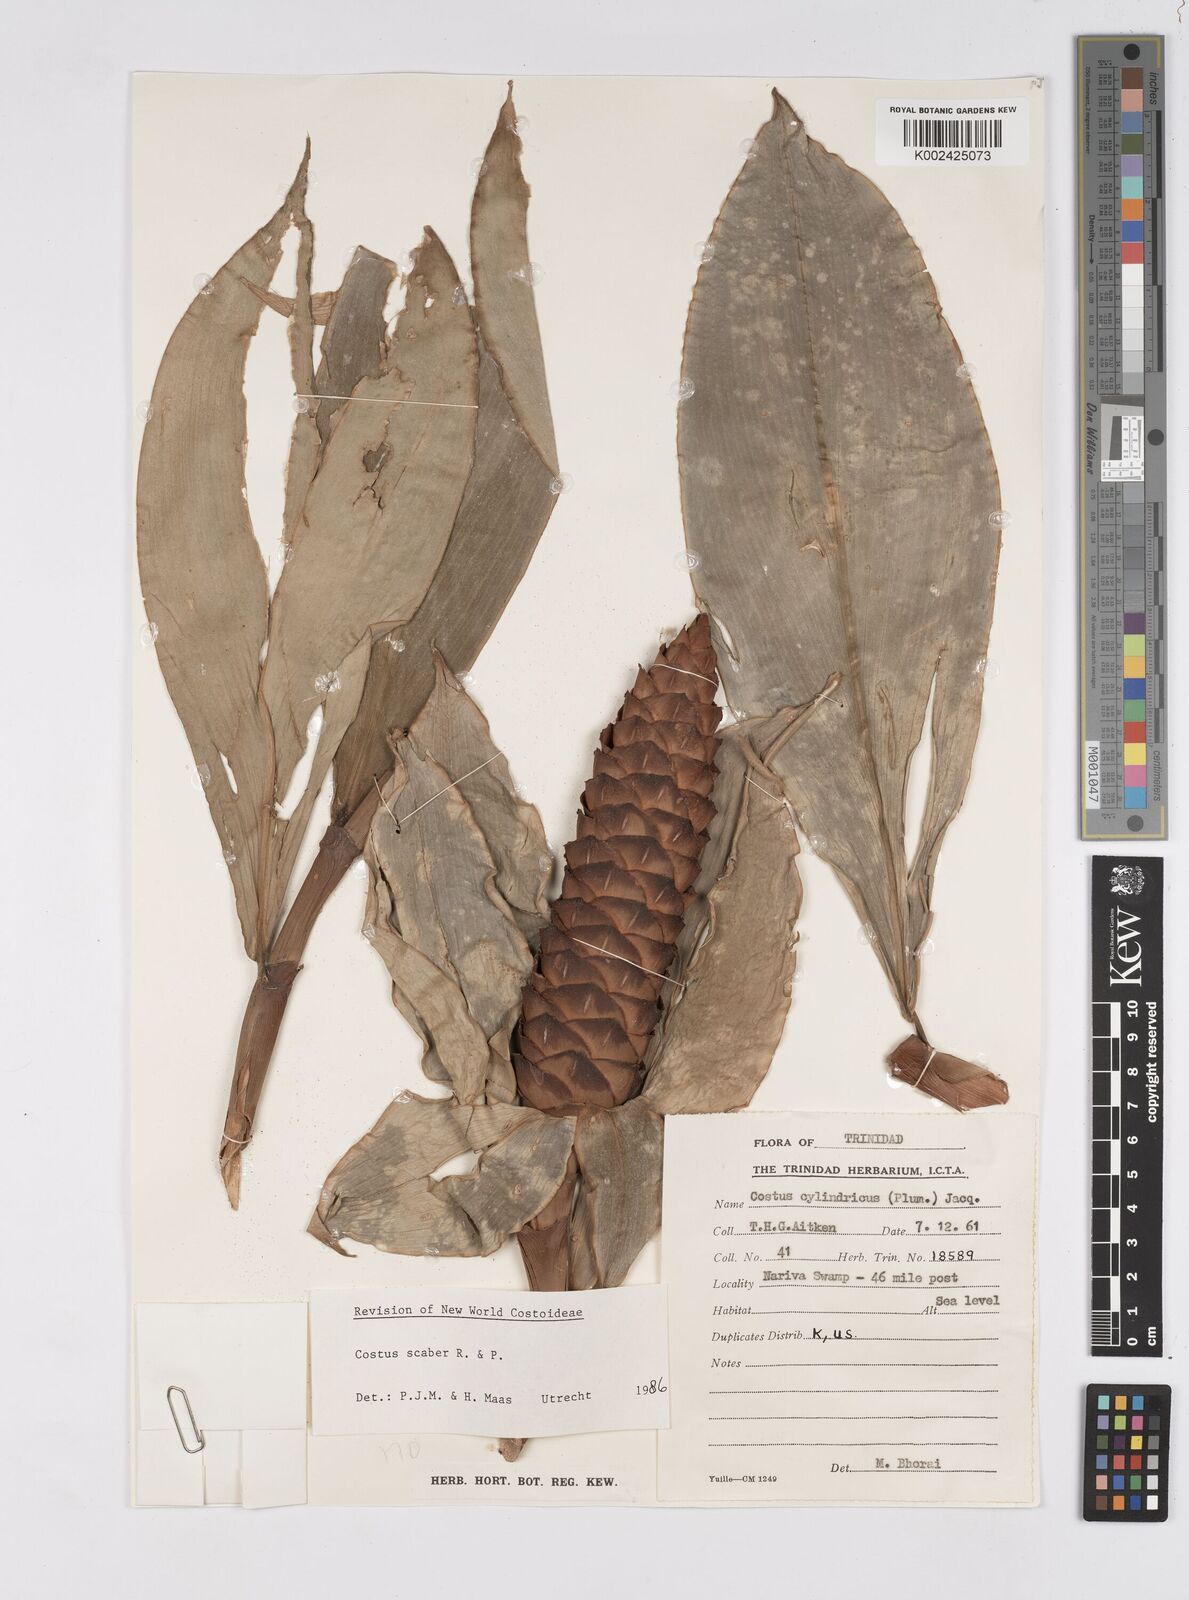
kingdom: Plantae
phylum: Tracheophyta
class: Liliopsida
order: Zingiberales
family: Costaceae
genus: Costus
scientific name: Costus scaber
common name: Spiral head ginger
